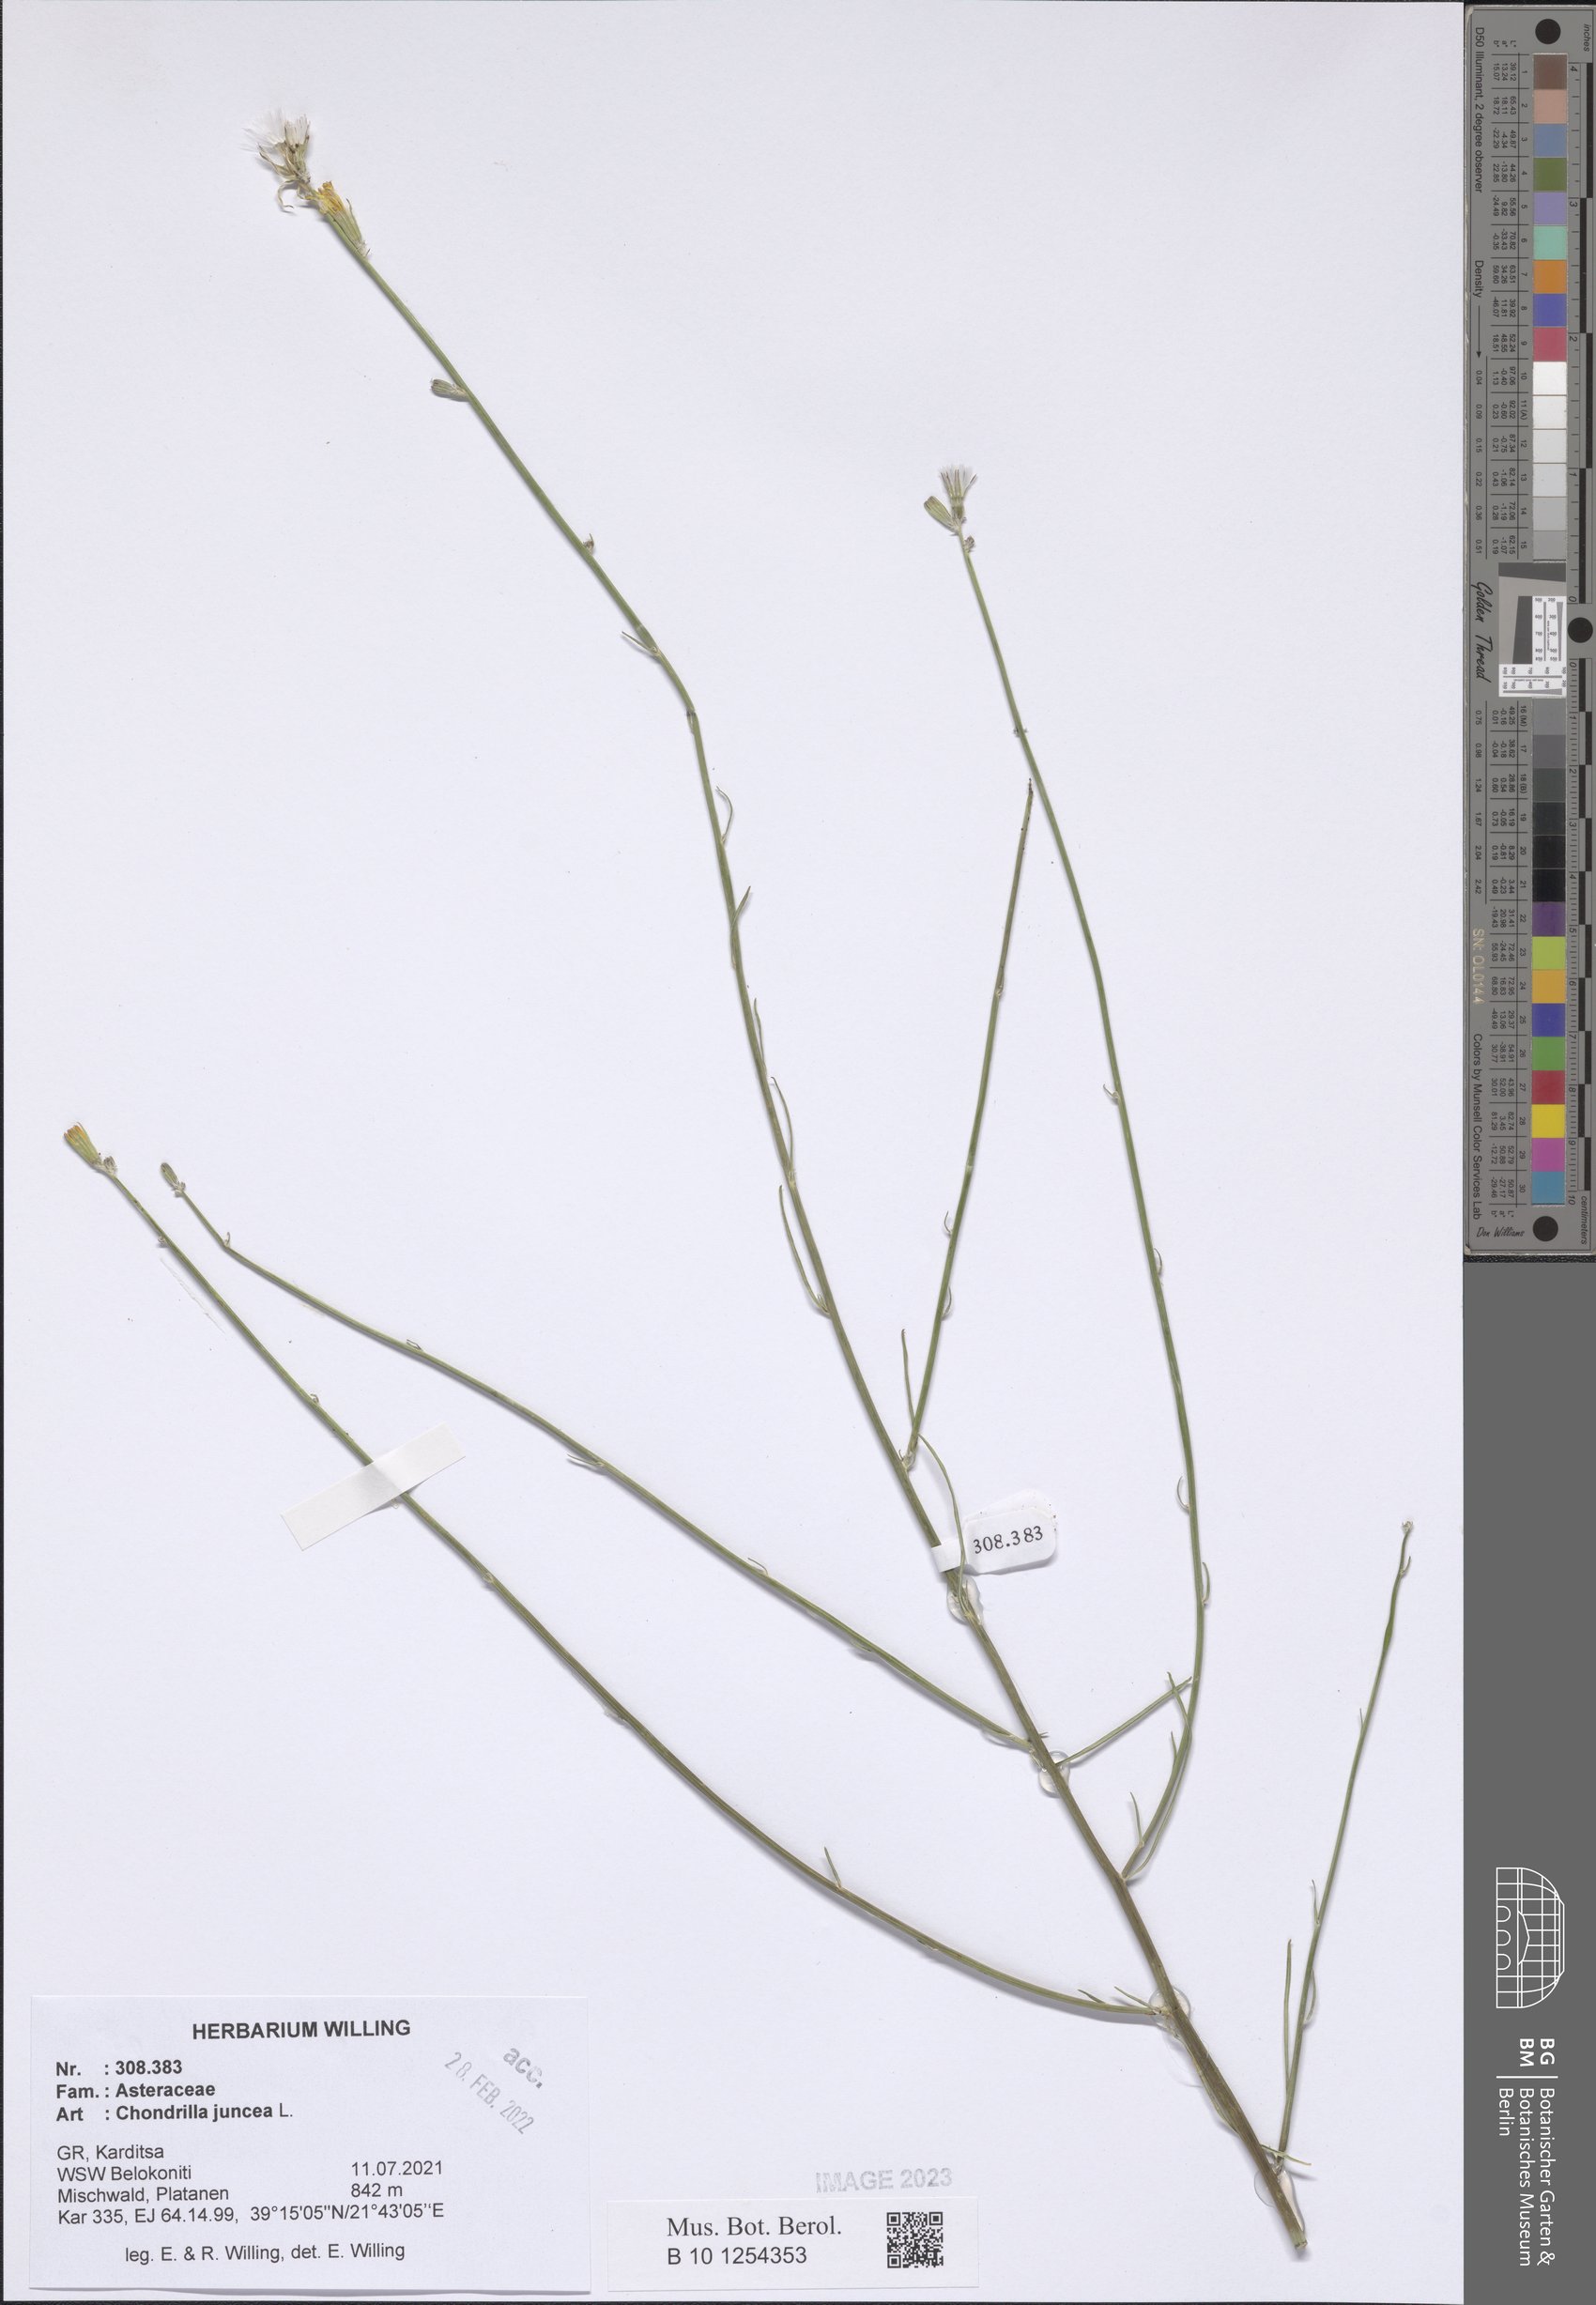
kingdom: Plantae
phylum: Tracheophyta
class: Magnoliopsida
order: Asterales
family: Asteraceae
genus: Chondrilla
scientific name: Chondrilla juncea
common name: Skeleton weed
